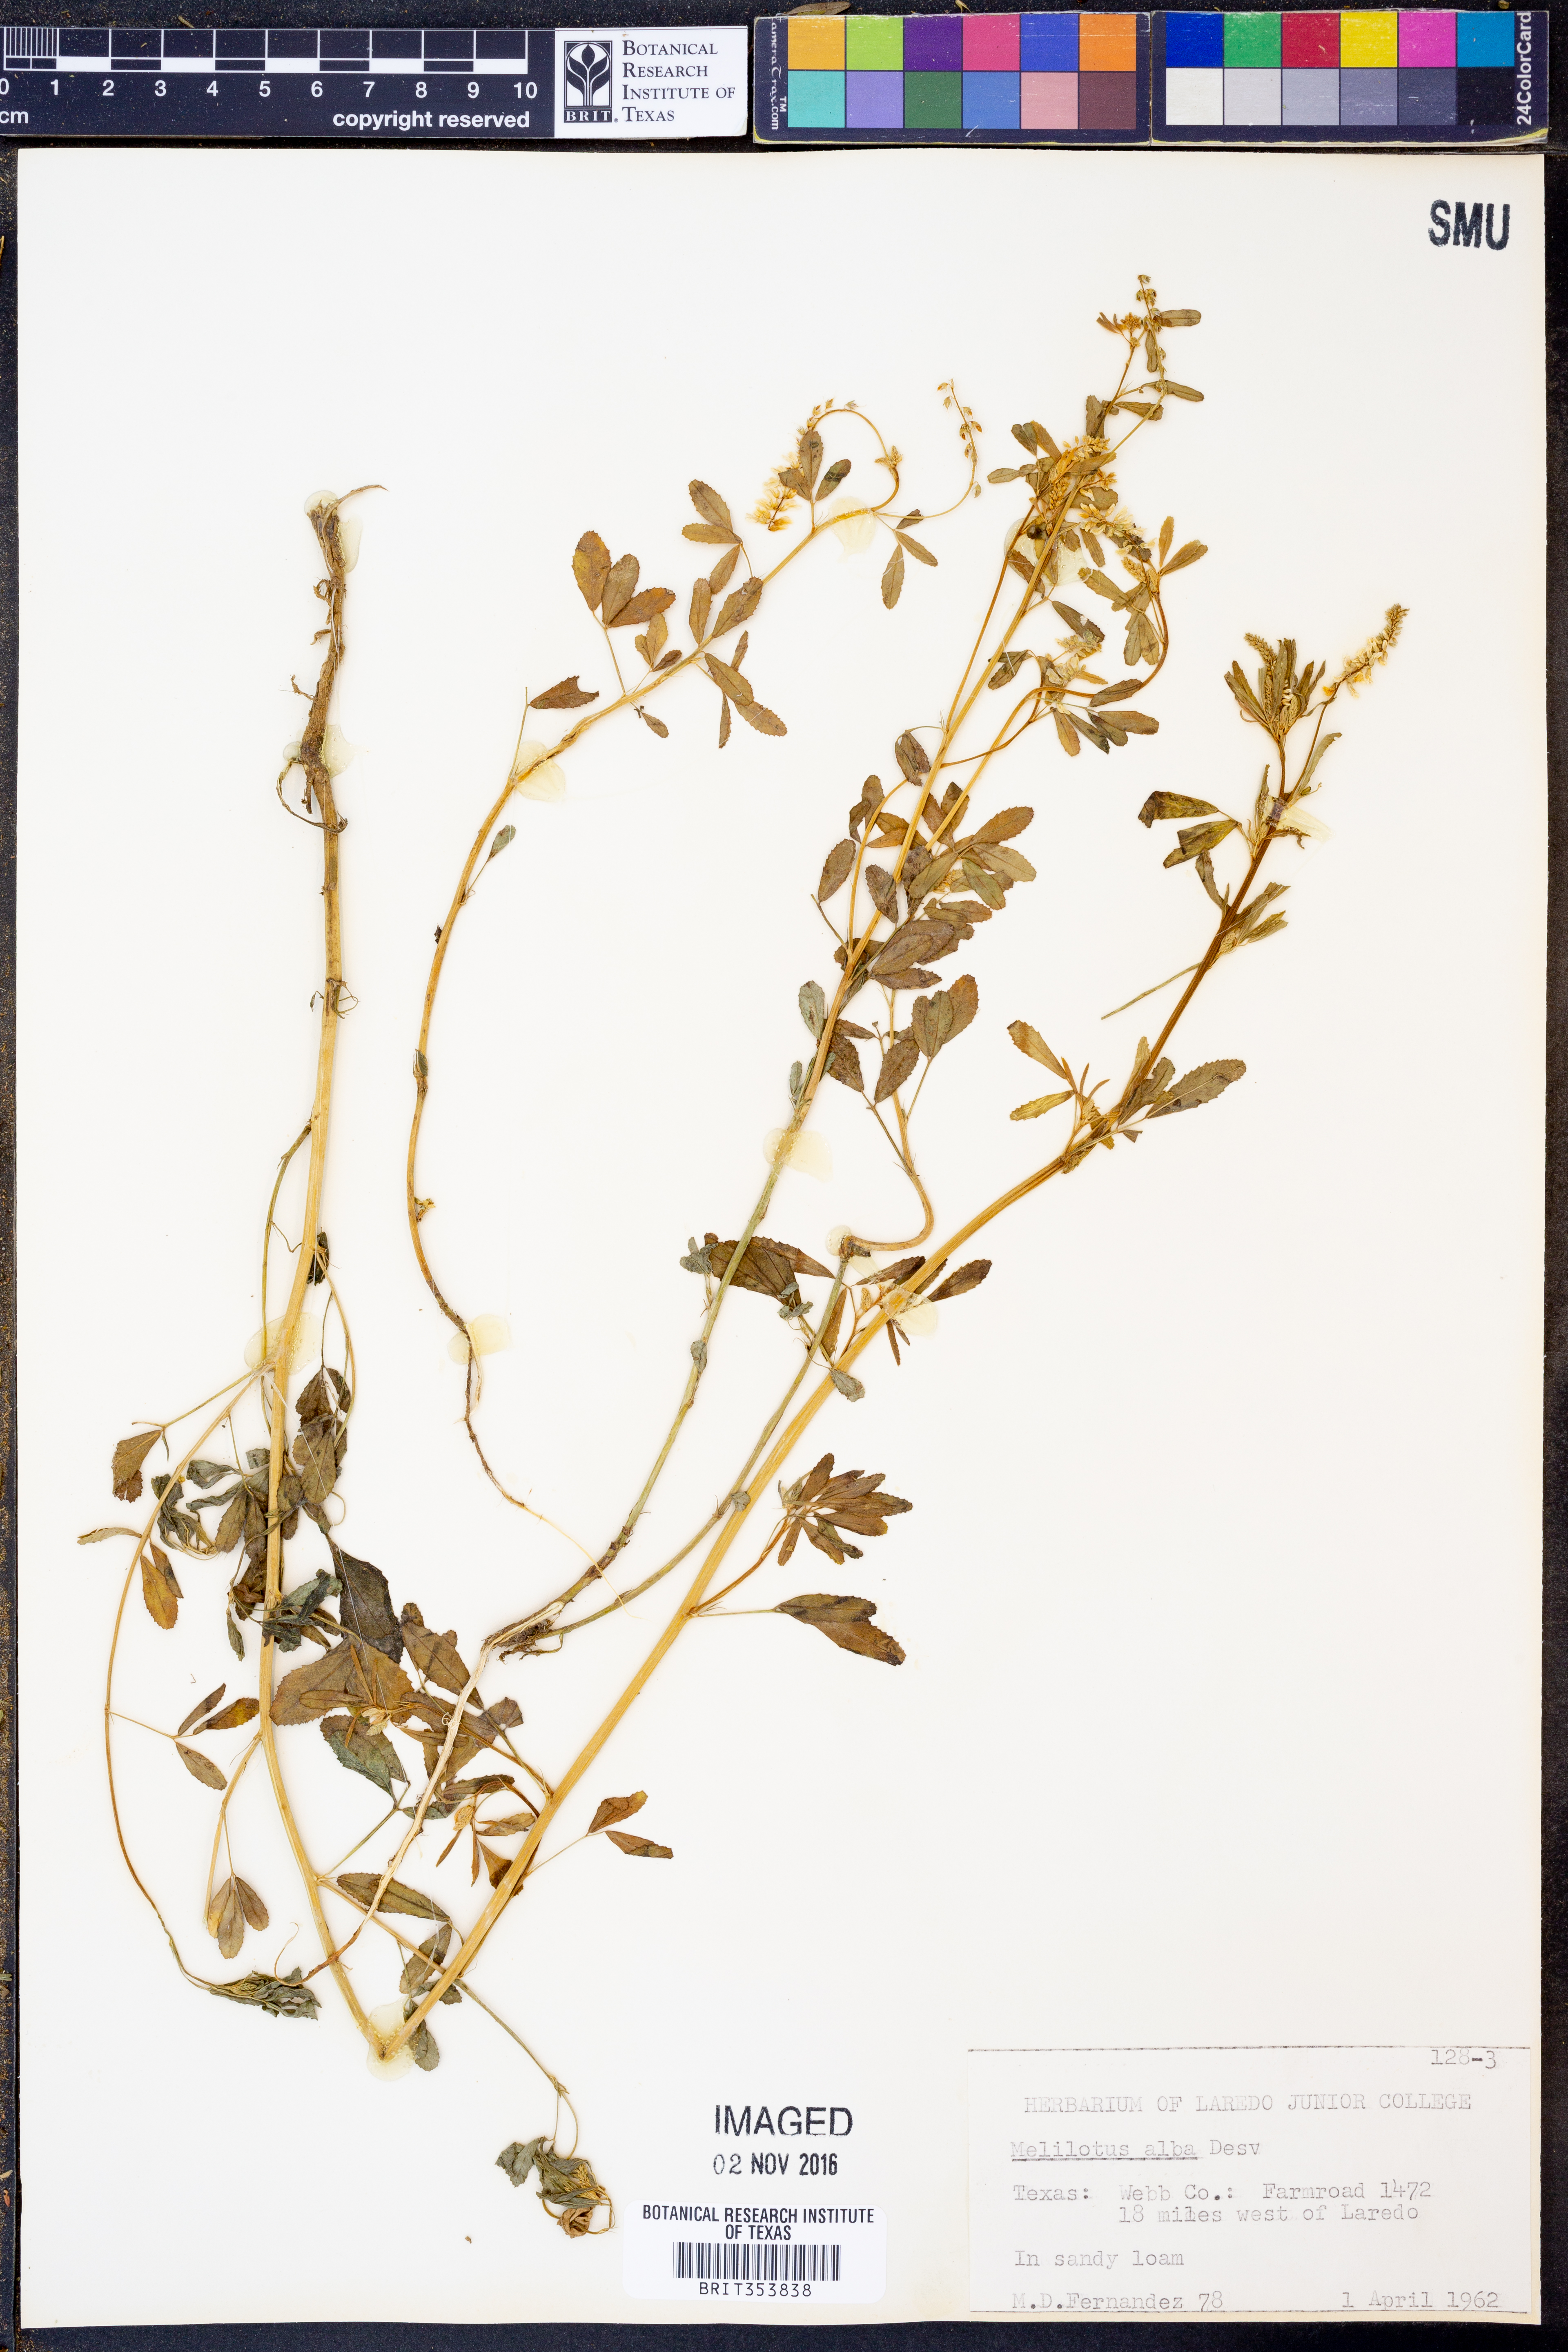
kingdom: Plantae
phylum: Tracheophyta
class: Magnoliopsida
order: Fabales
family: Fabaceae
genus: Melilotus
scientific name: Melilotus albus
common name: White melilot
